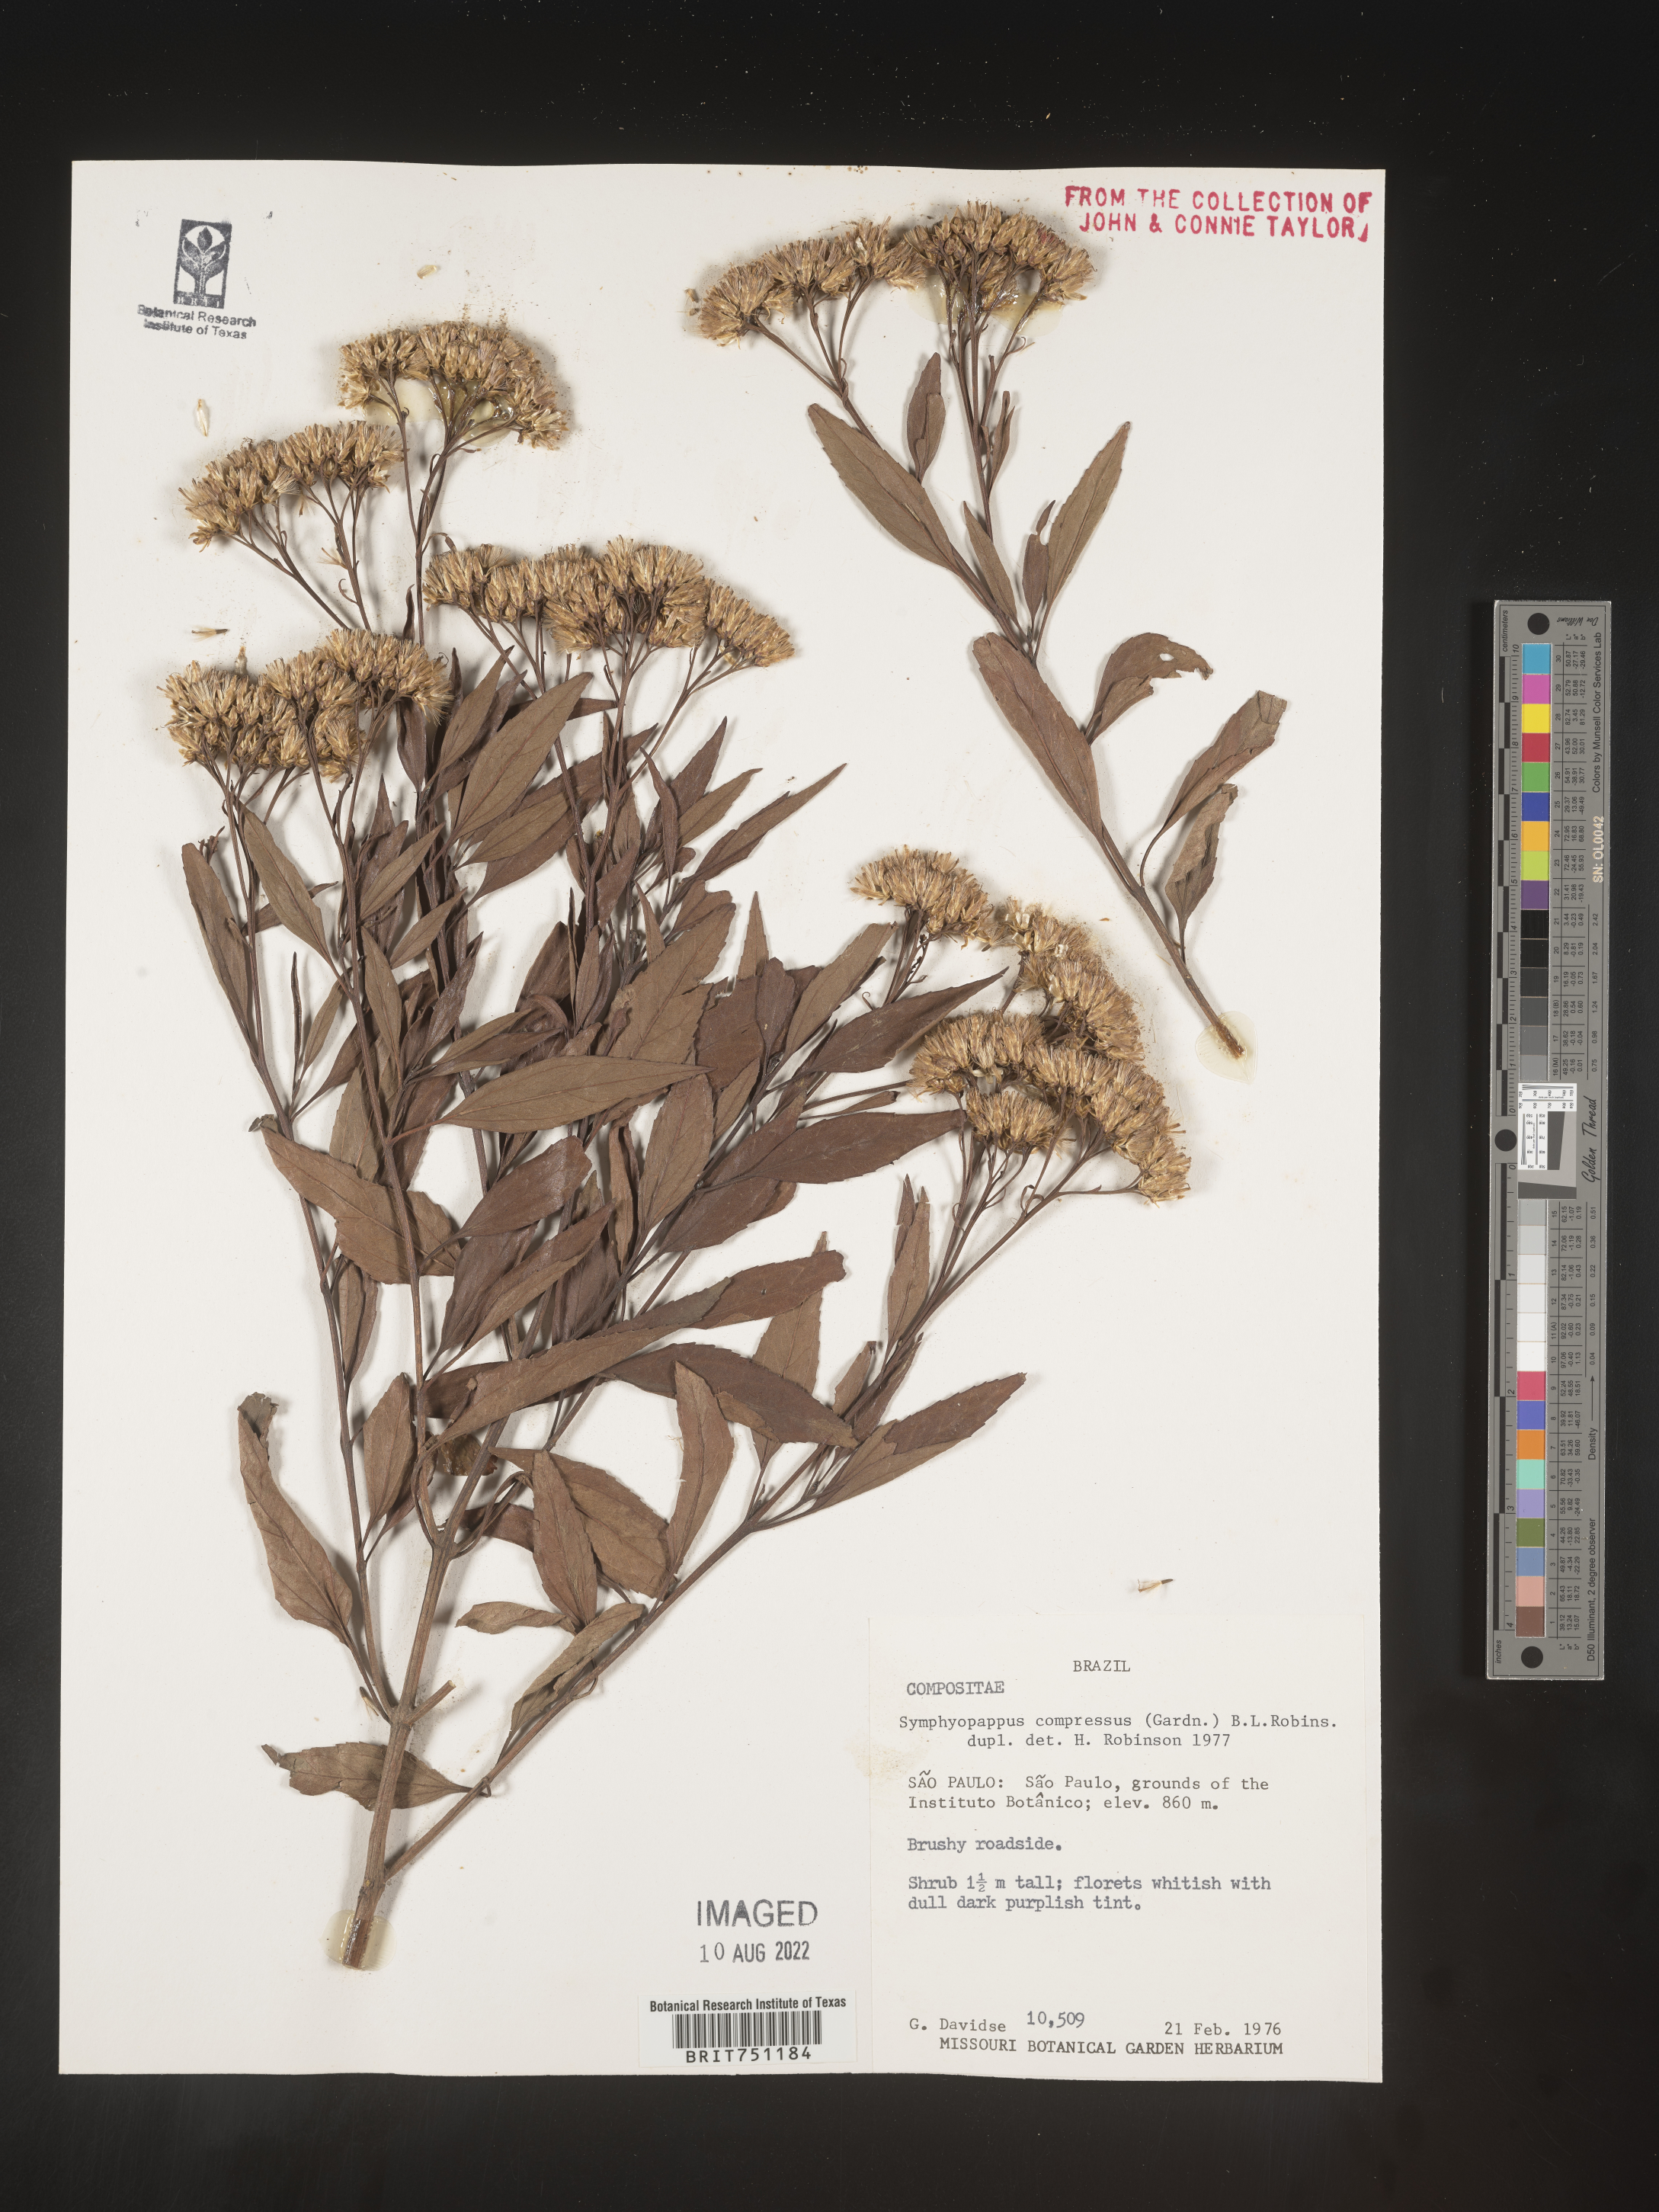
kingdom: Plantae
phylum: Tracheophyta
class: Magnoliopsida
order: Asterales
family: Asteraceae
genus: Symphyopappus
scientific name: Symphyopappus
